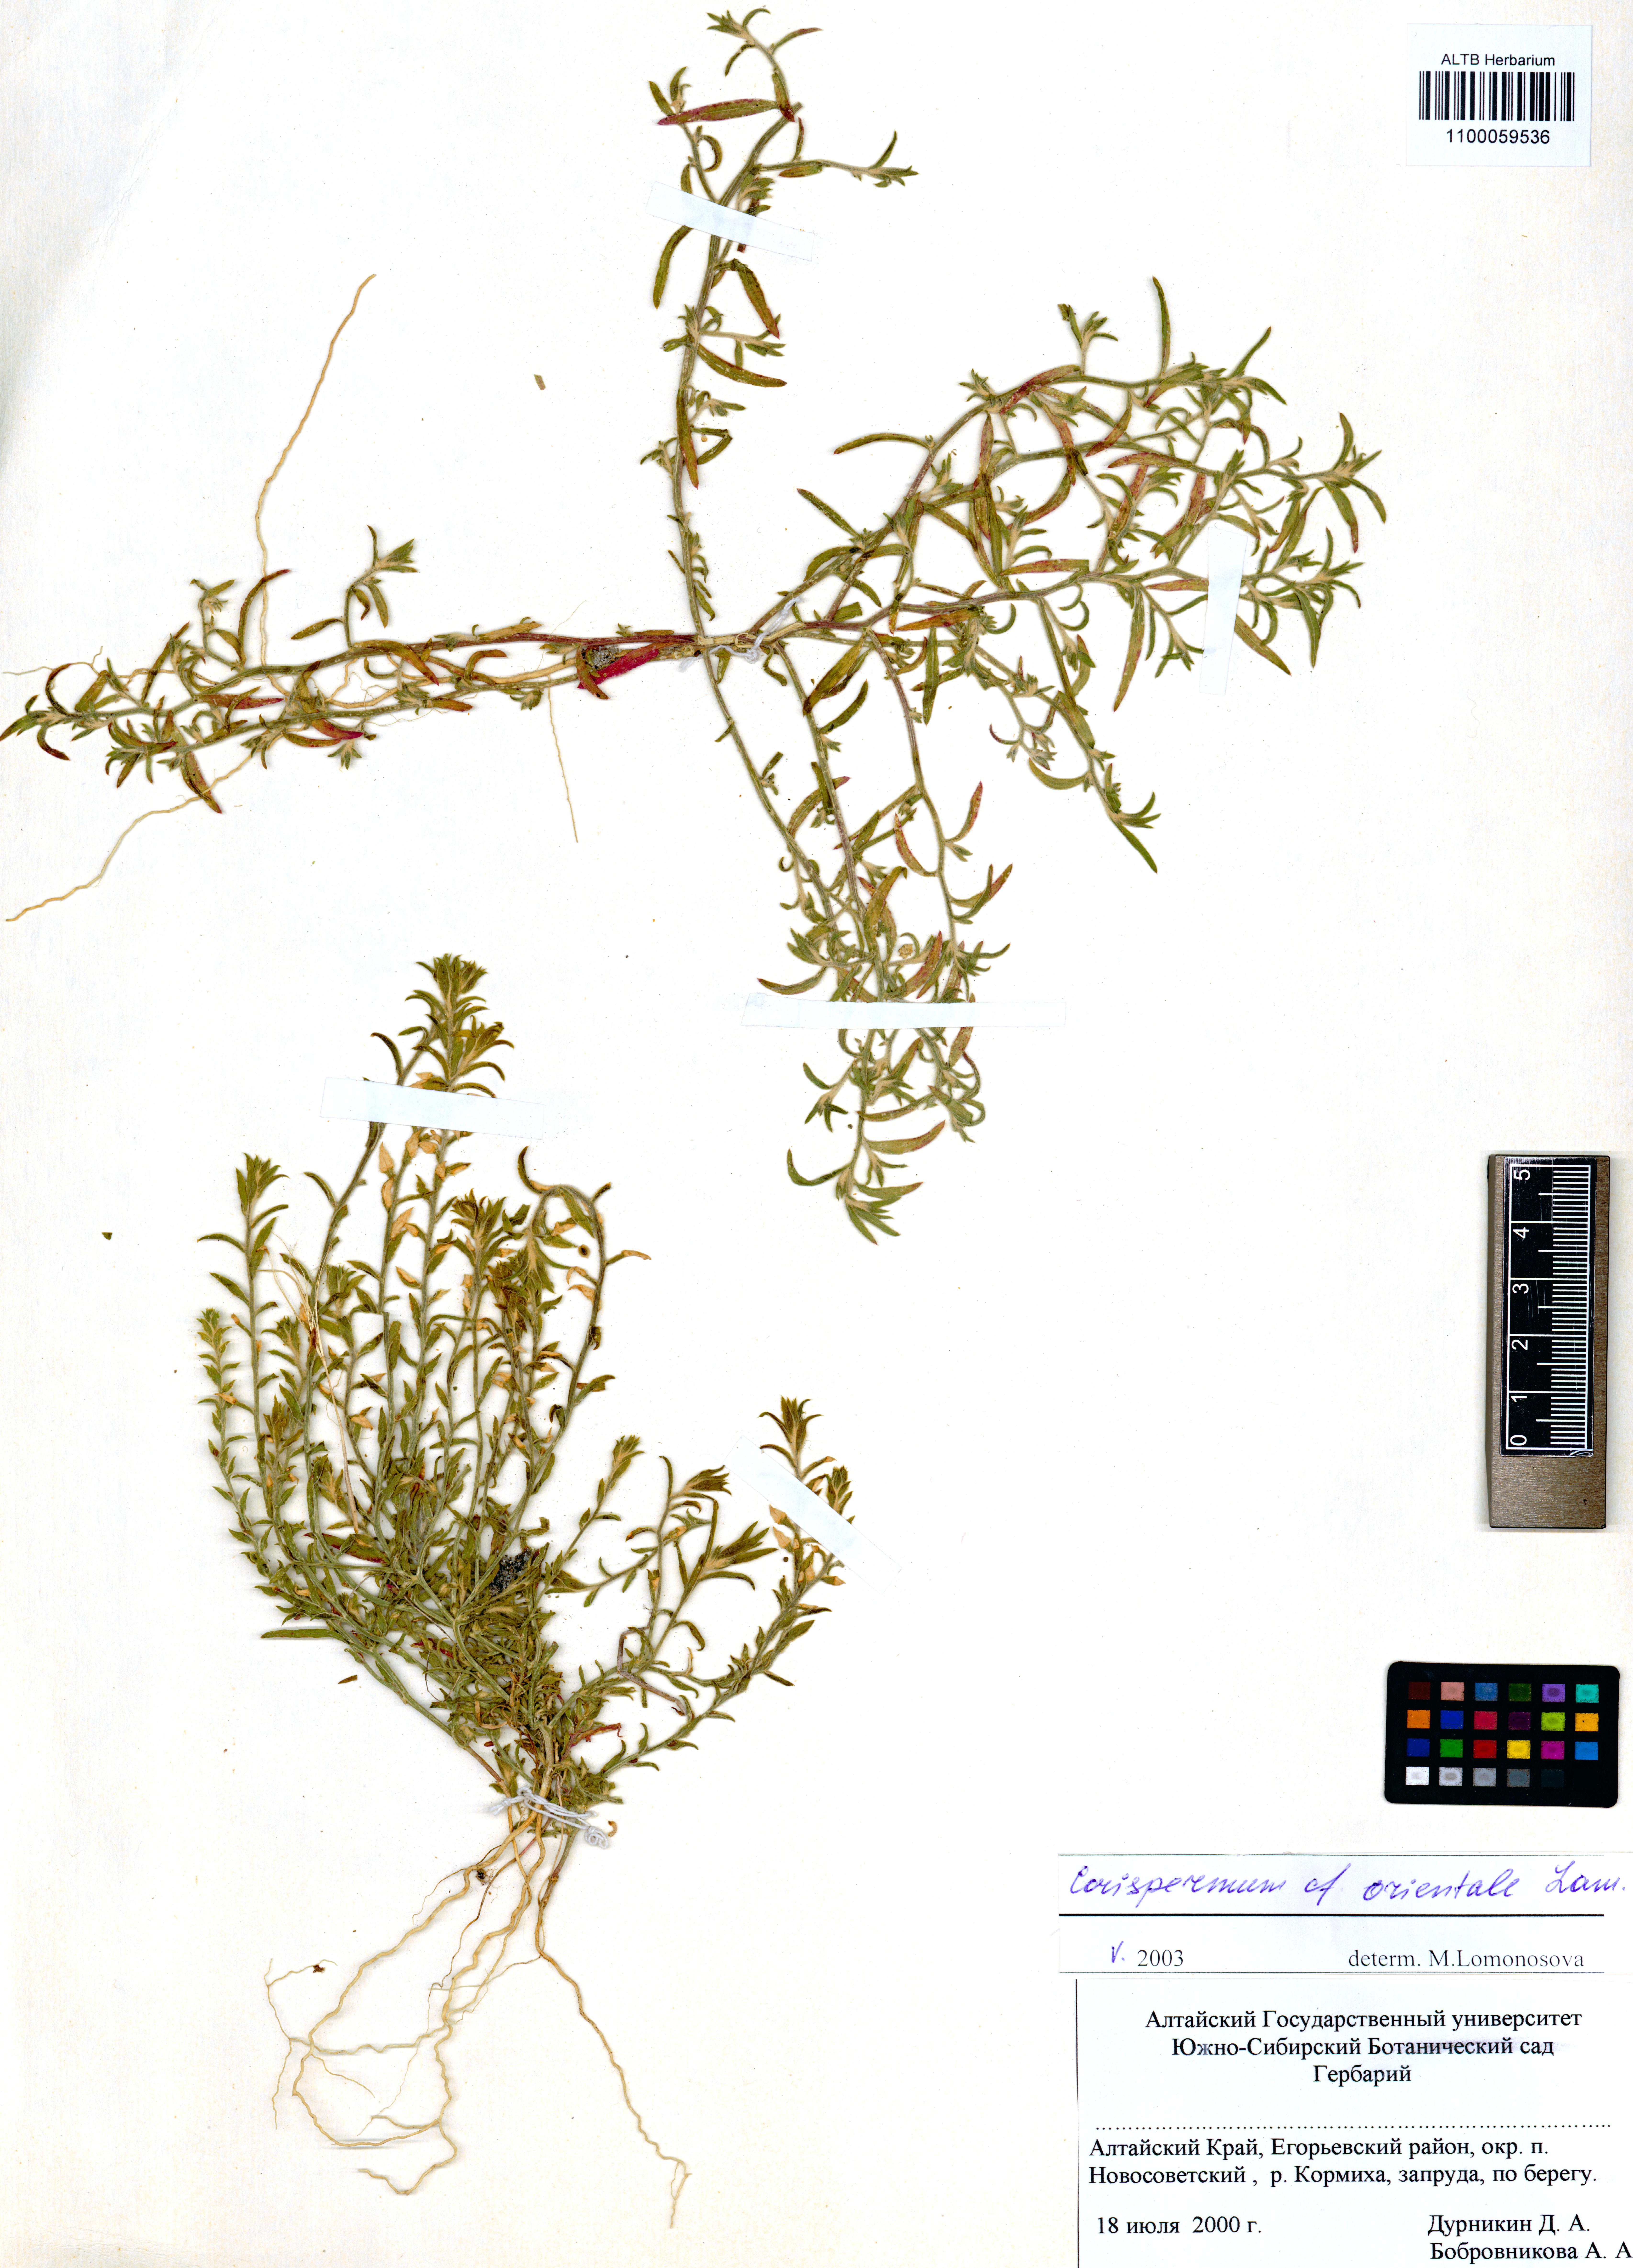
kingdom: Plantae
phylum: Tracheophyta
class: Magnoliopsida
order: Caryophyllales
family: Amaranthaceae
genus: Corispermum
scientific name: Corispermum aralocaspicum
